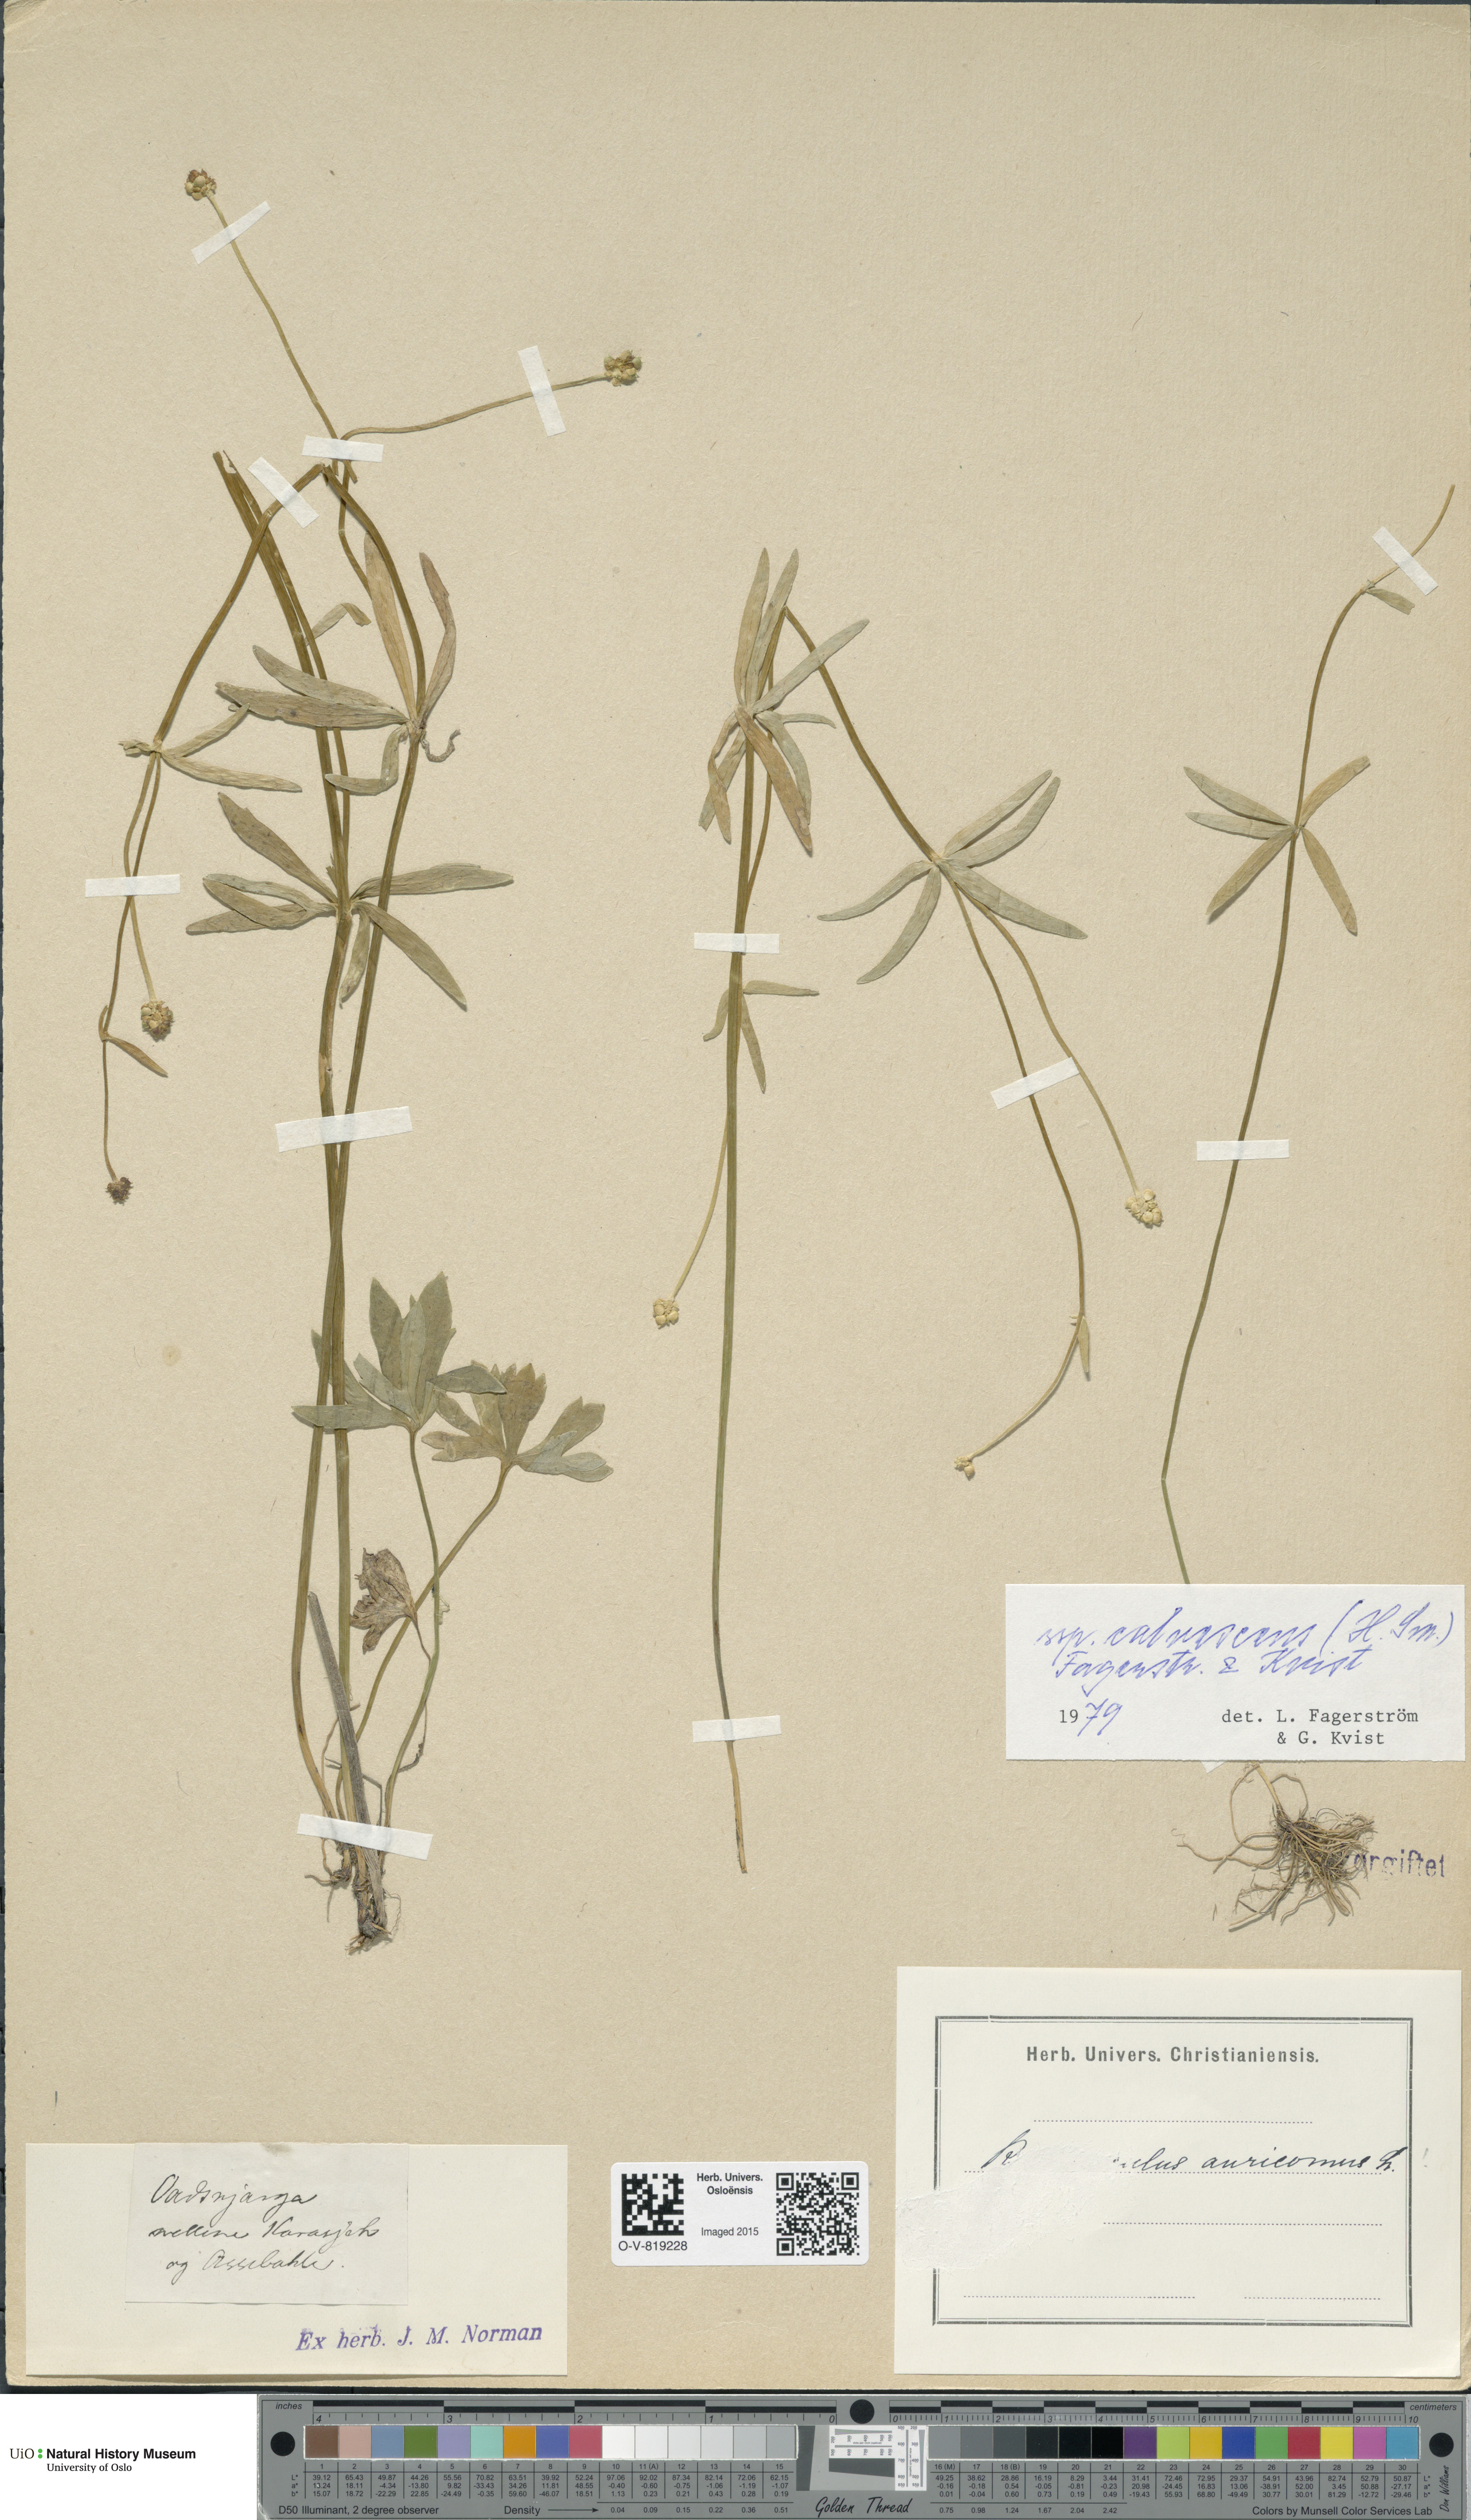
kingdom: Plantae
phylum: Tracheophyta
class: Magnoliopsida
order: Ranunculales
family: Ranunculaceae
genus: Ranunculus
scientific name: Ranunculus calvescens
